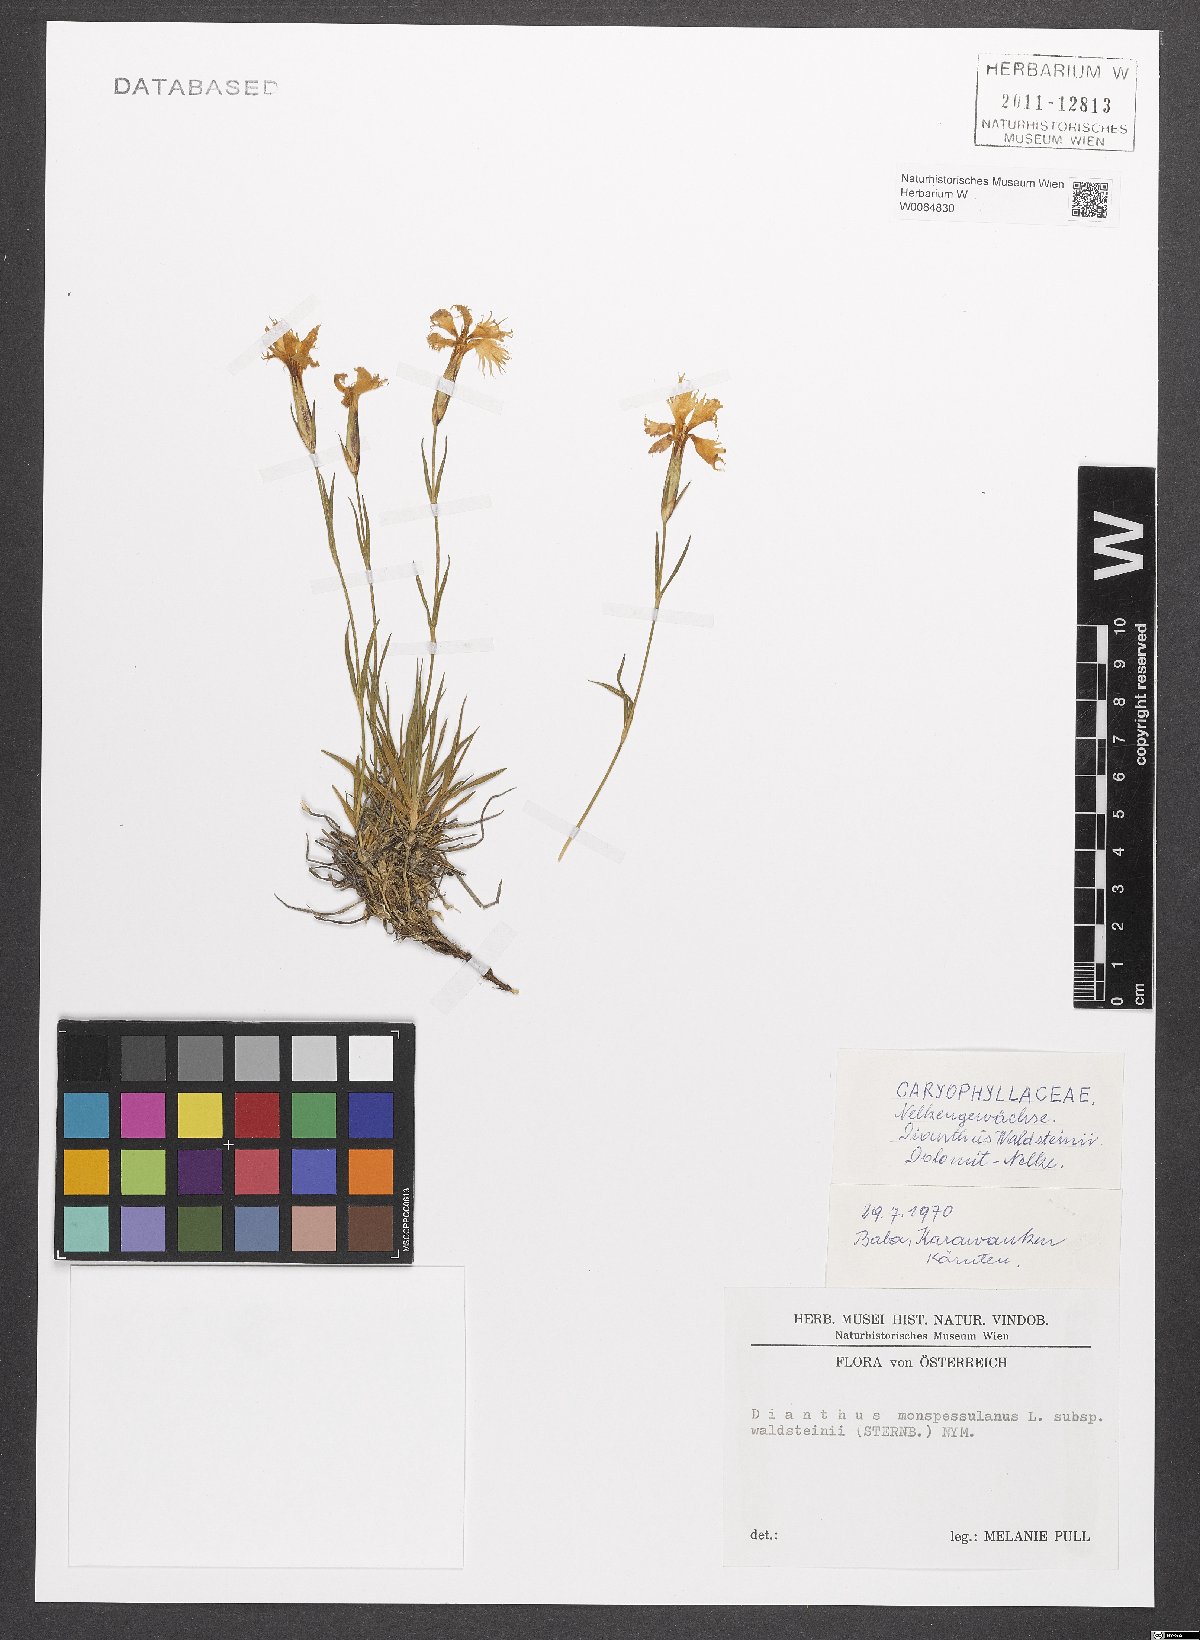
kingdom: Plantae
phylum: Tracheophyta
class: Magnoliopsida
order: Caryophyllales
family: Caryophyllaceae
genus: Dianthus
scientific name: Dianthus monspessulanus
